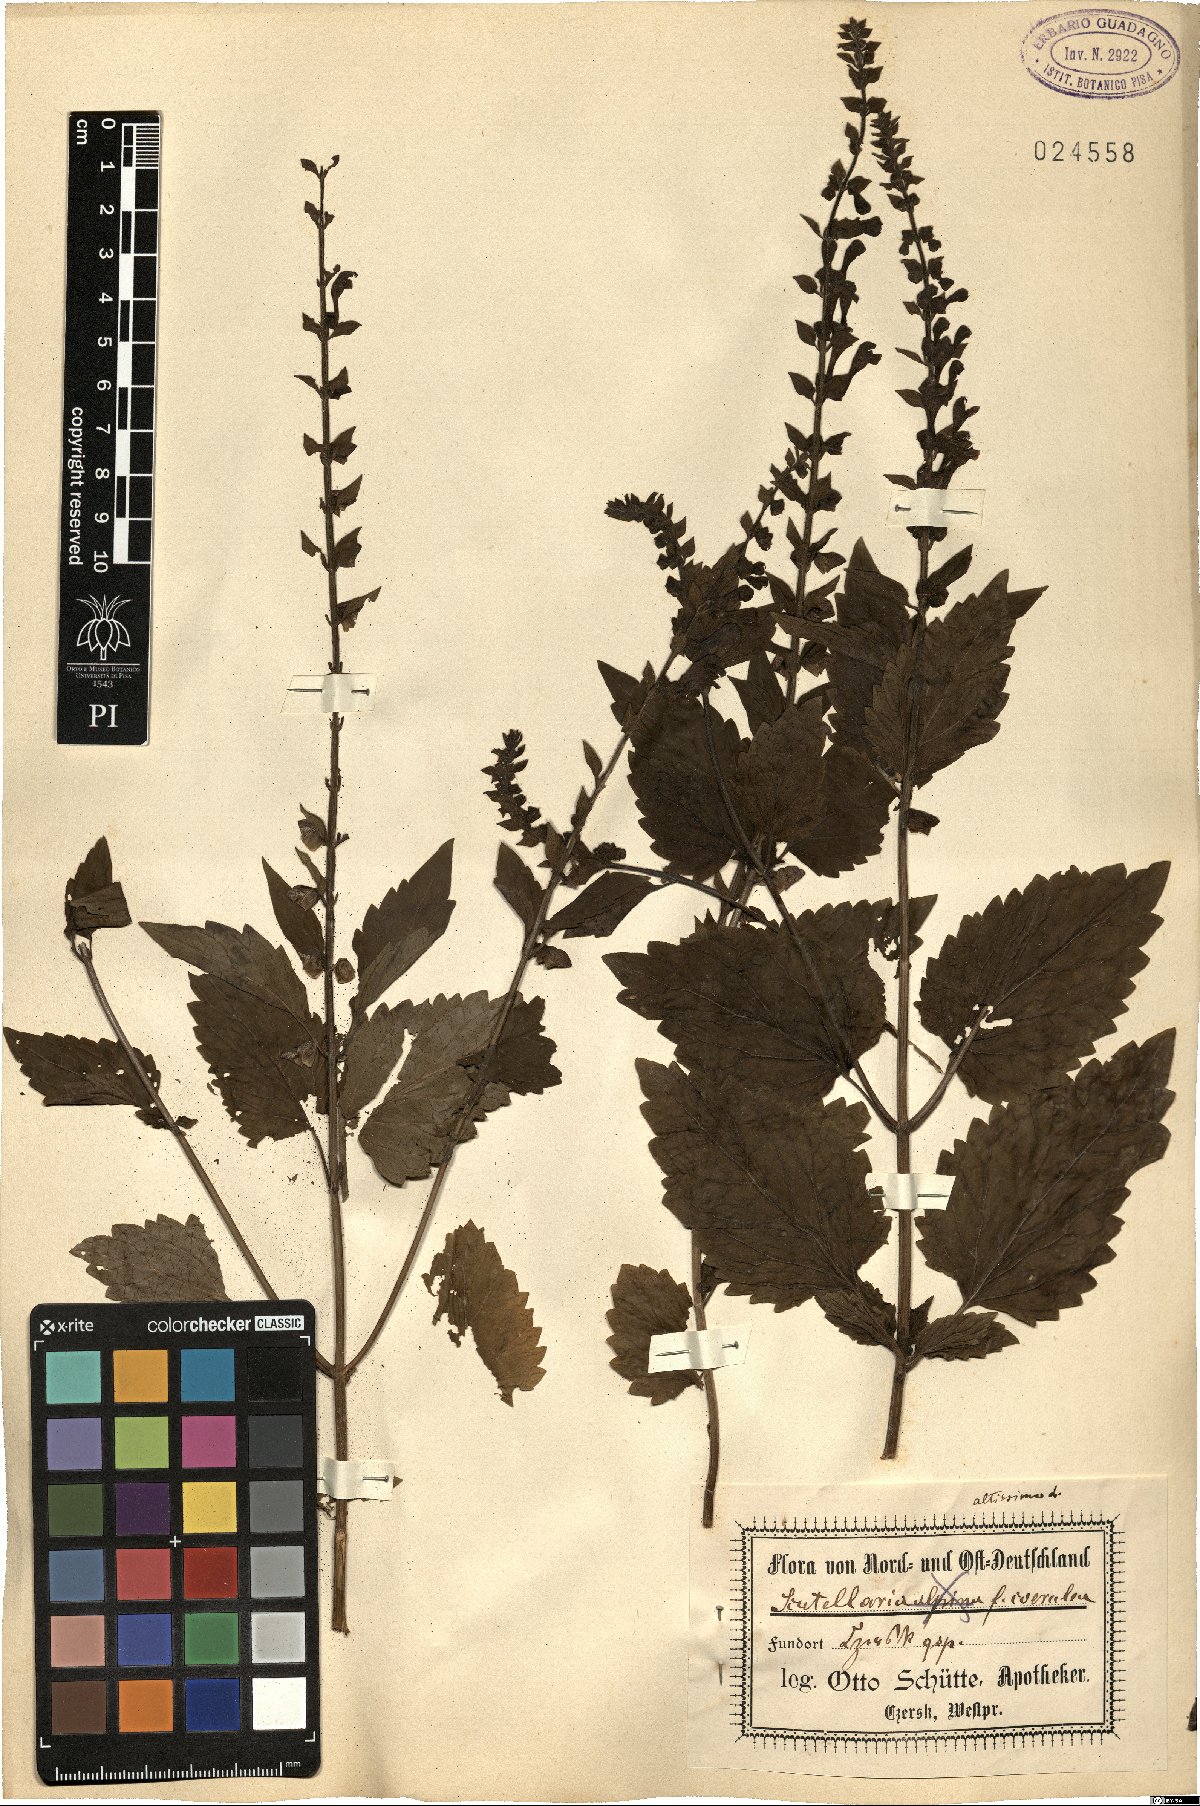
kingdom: Plantae
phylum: Tracheophyta
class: Magnoliopsida
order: Lamiales
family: Lamiaceae
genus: Scutellaria
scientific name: Scutellaria altissima
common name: Somerset skullcap
